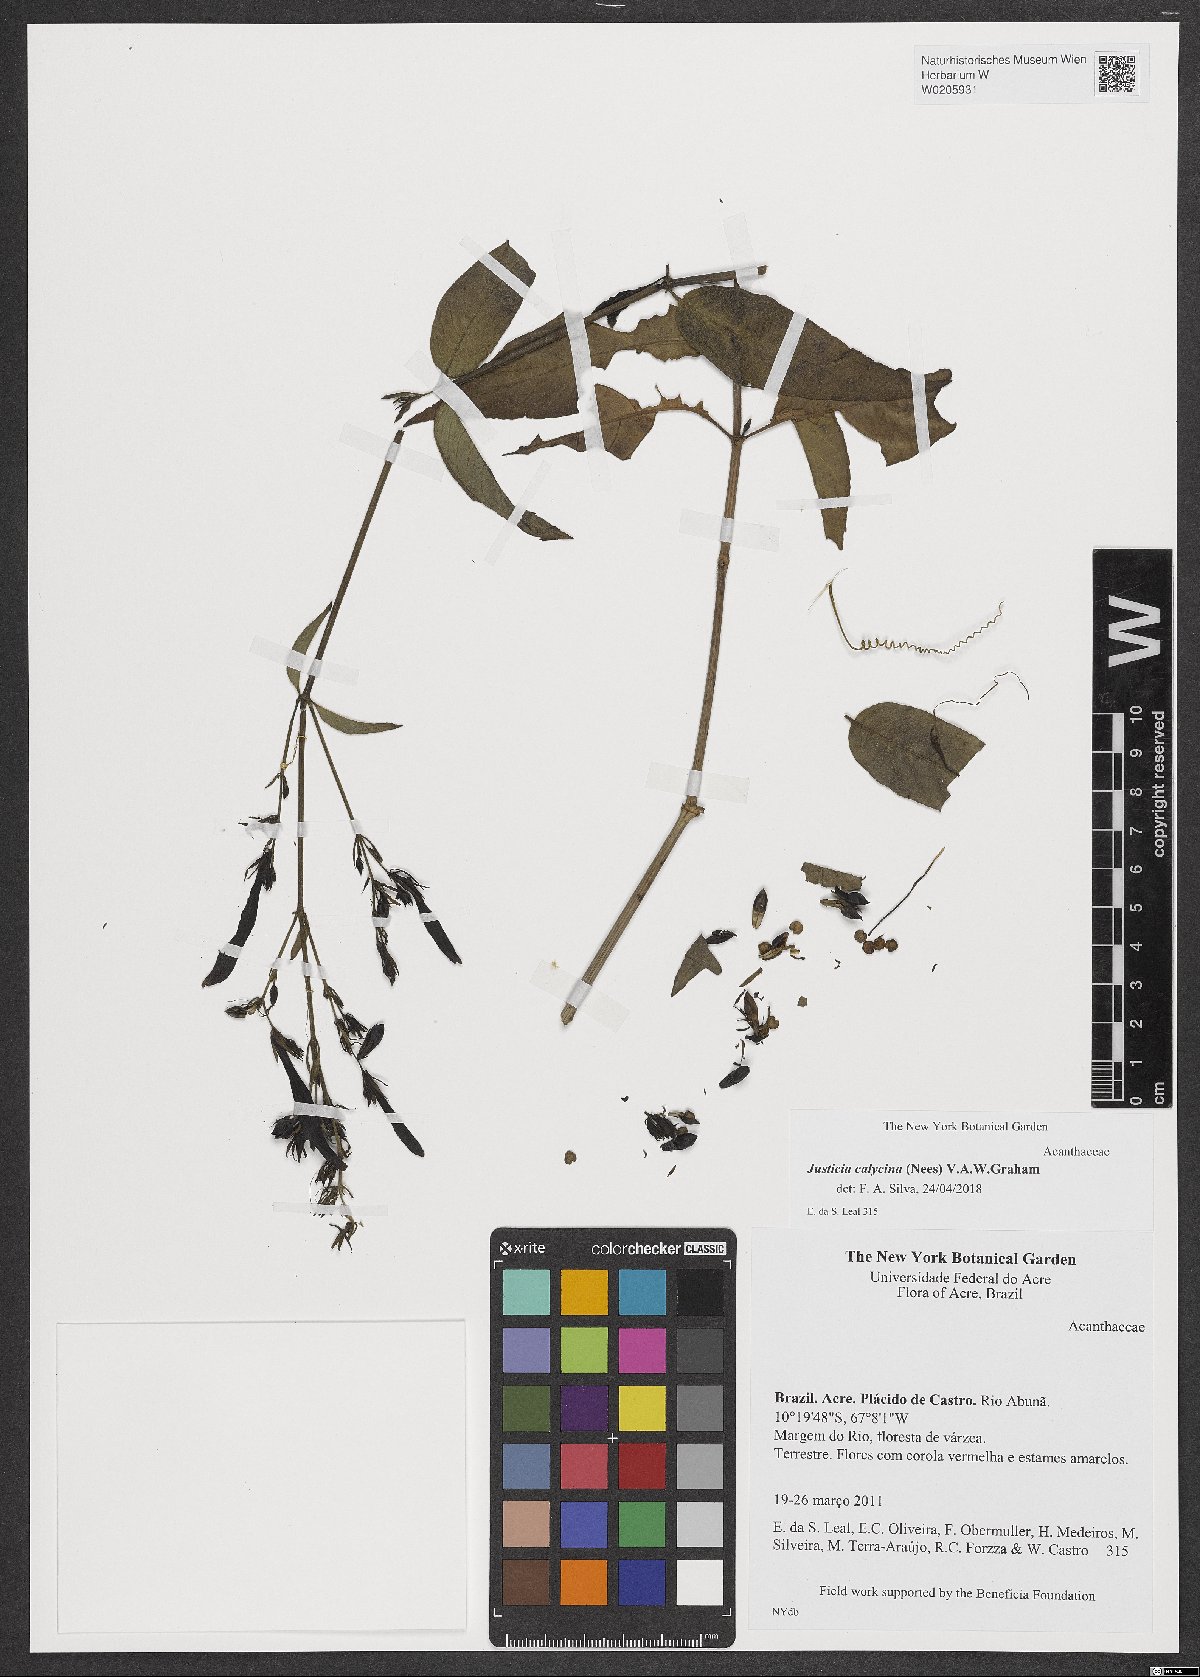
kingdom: Plantae
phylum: Tracheophyta
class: Magnoliopsida
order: Lamiales
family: Acanthaceae
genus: Dianthera
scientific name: Dianthera calycina
